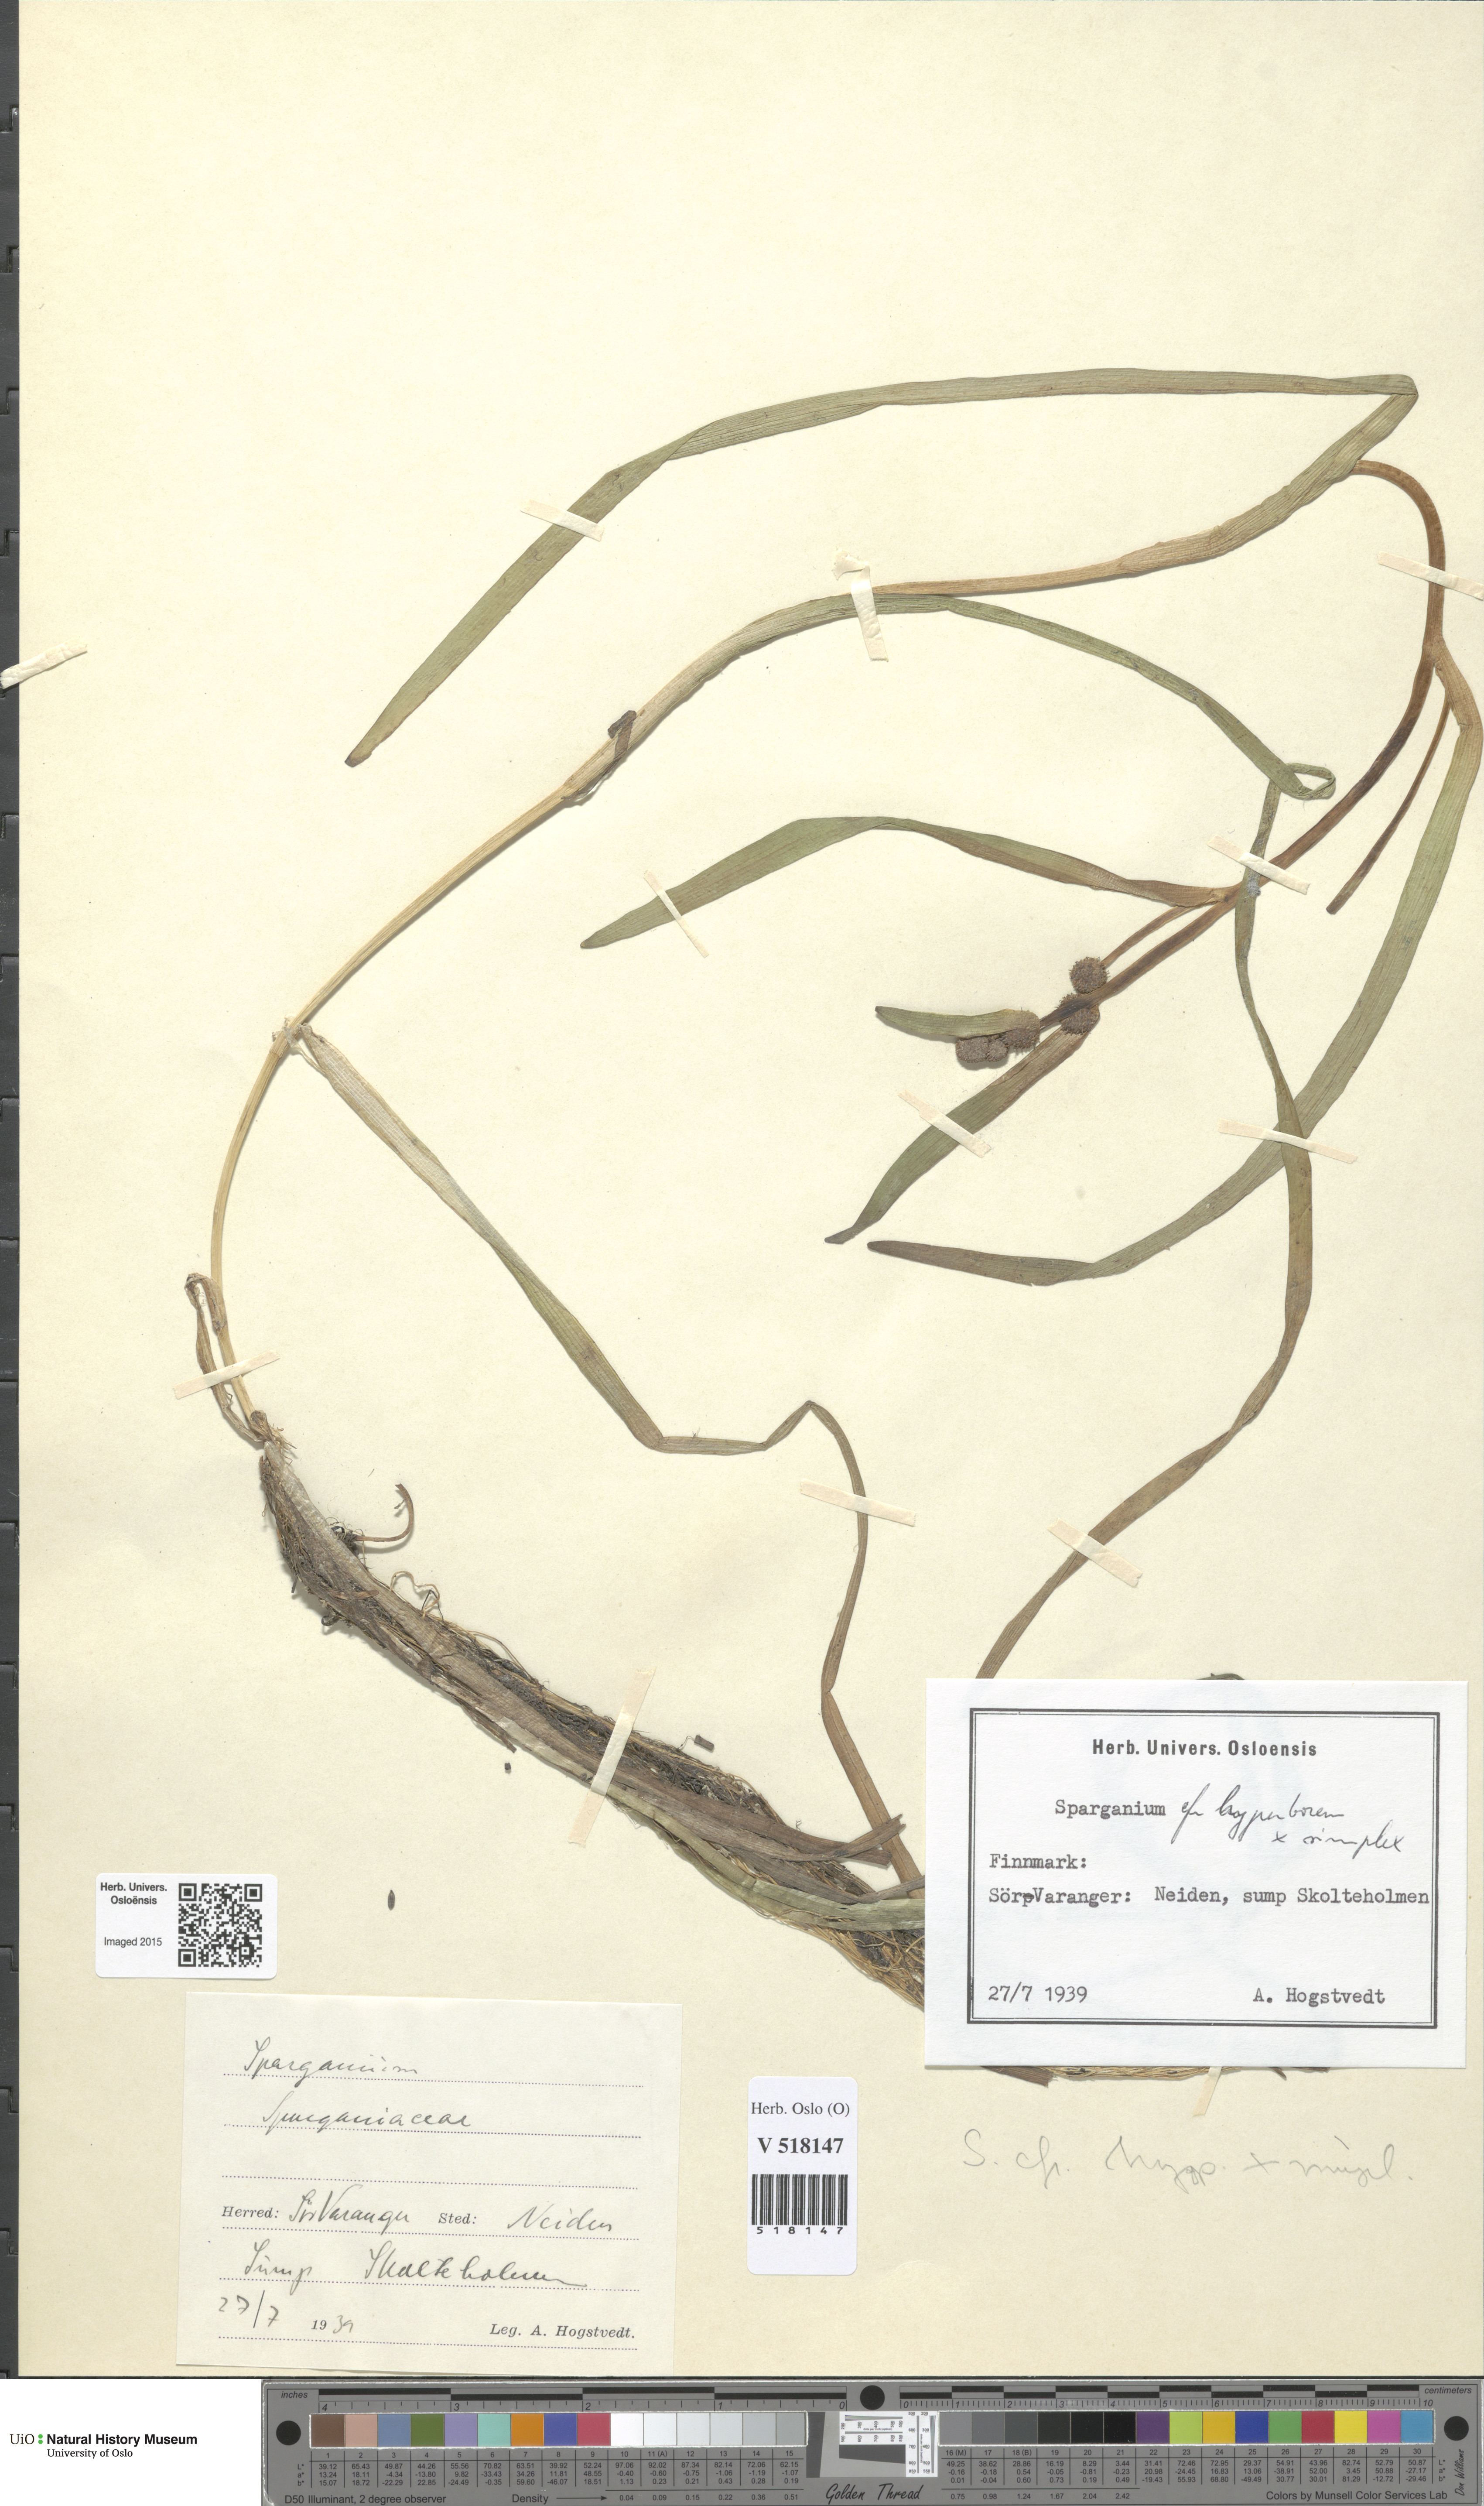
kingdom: Plantae
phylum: Tracheophyta
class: Liliopsida
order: Poales
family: Typhaceae
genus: Sparganium
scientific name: Sparganium
